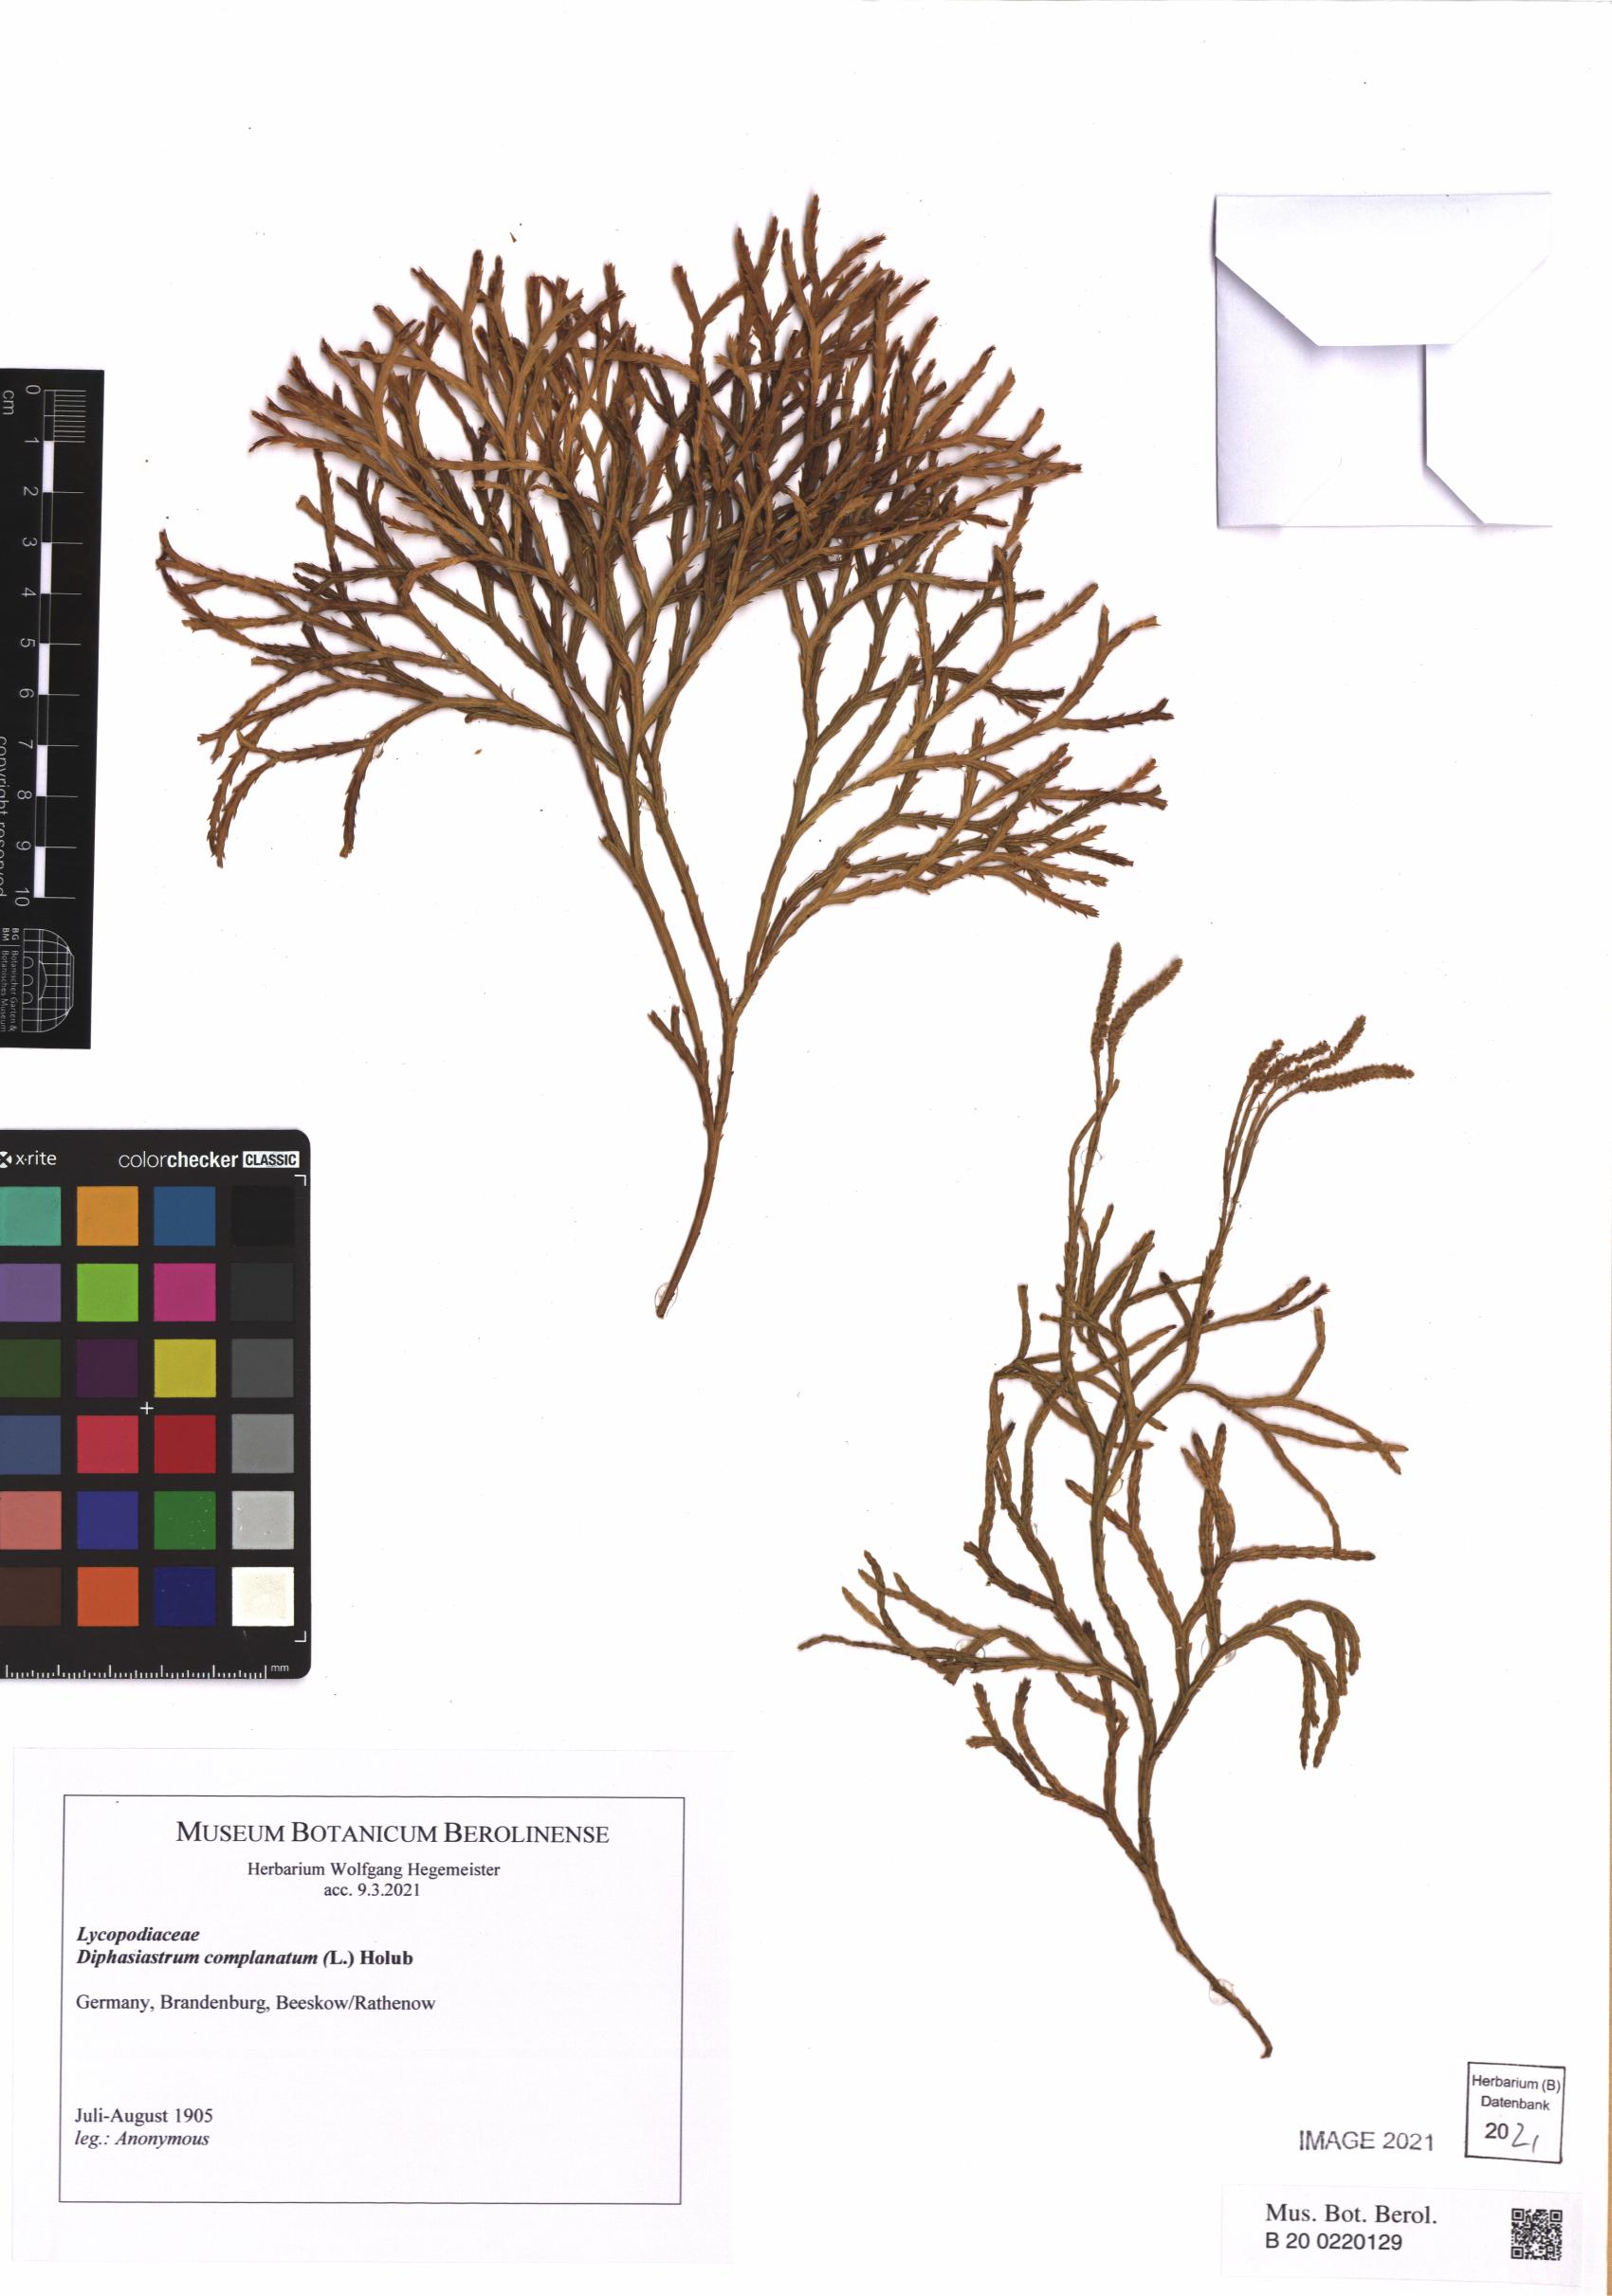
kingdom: Plantae
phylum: Tracheophyta
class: Lycopodiopsida
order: Lycopodiales
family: Lycopodiaceae
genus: Diphasiastrum
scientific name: Diphasiastrum complanatum
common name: Northern running-pine
